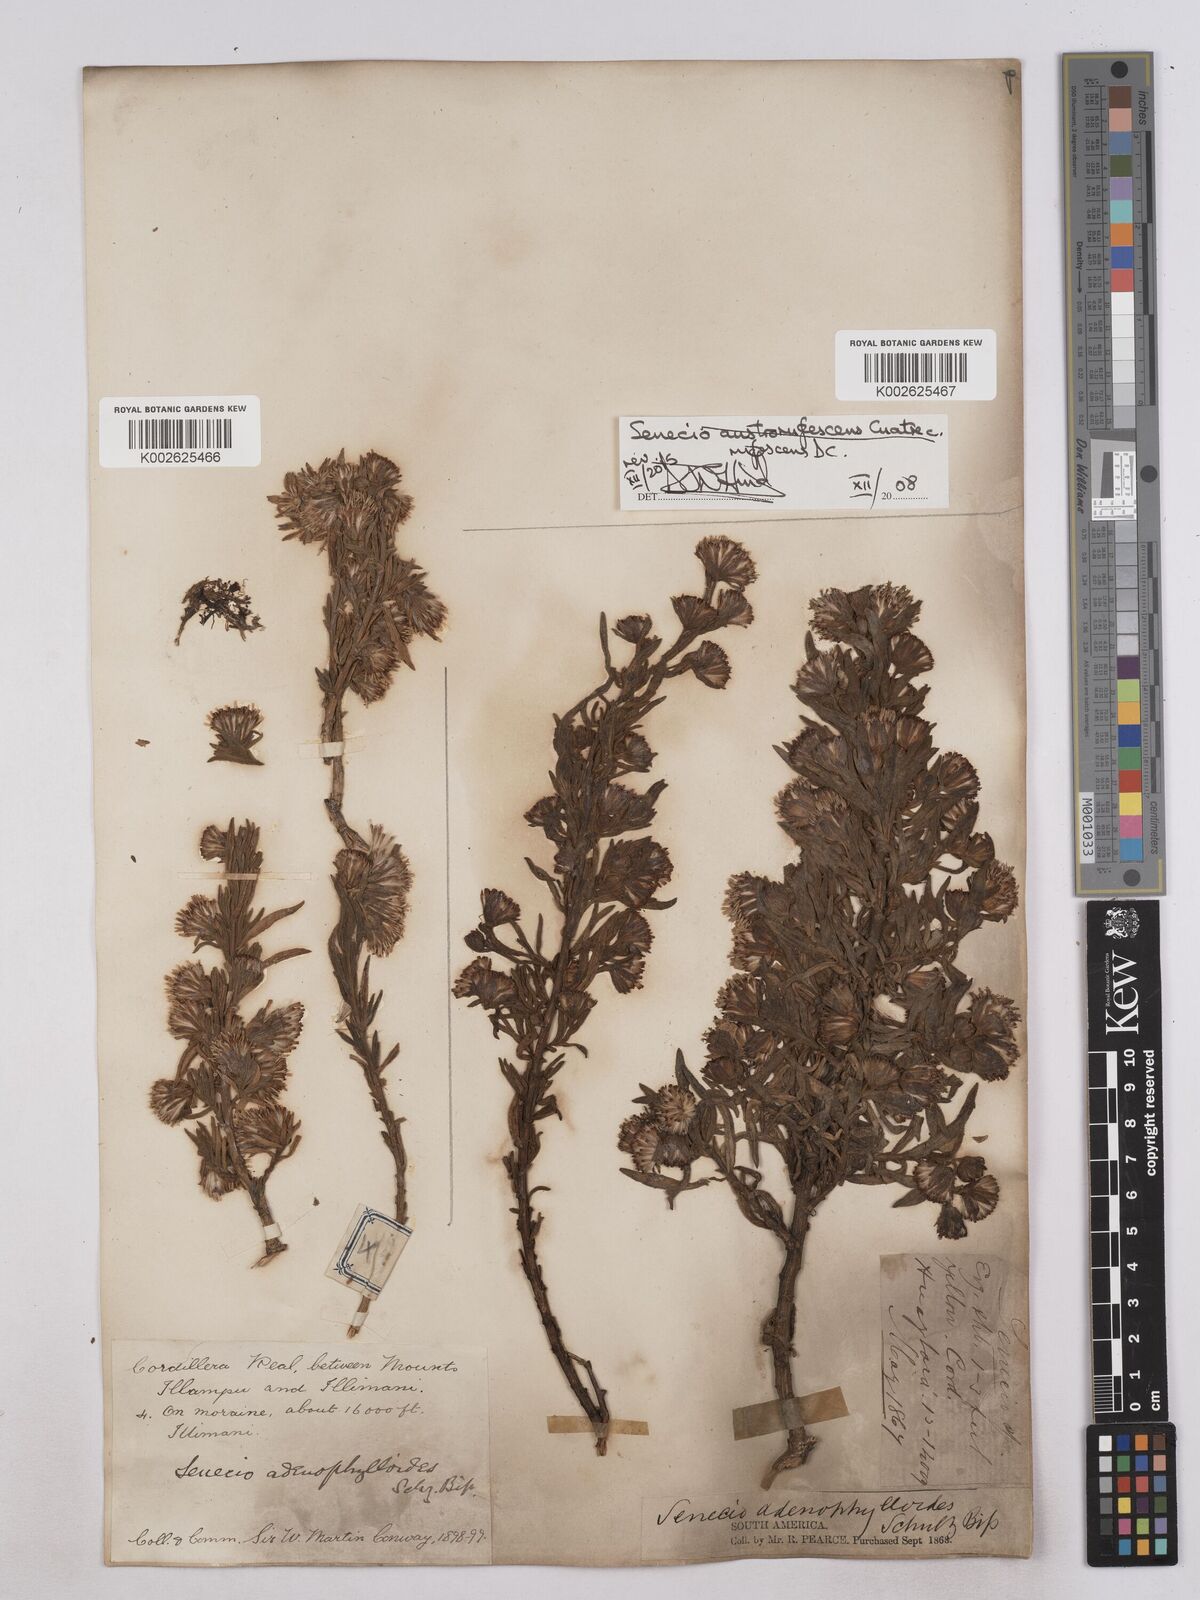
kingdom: Plantae
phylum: Tracheophyta
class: Magnoliopsida
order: Asterales
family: Asteraceae
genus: Culcitium
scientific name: Culcitium canescens
